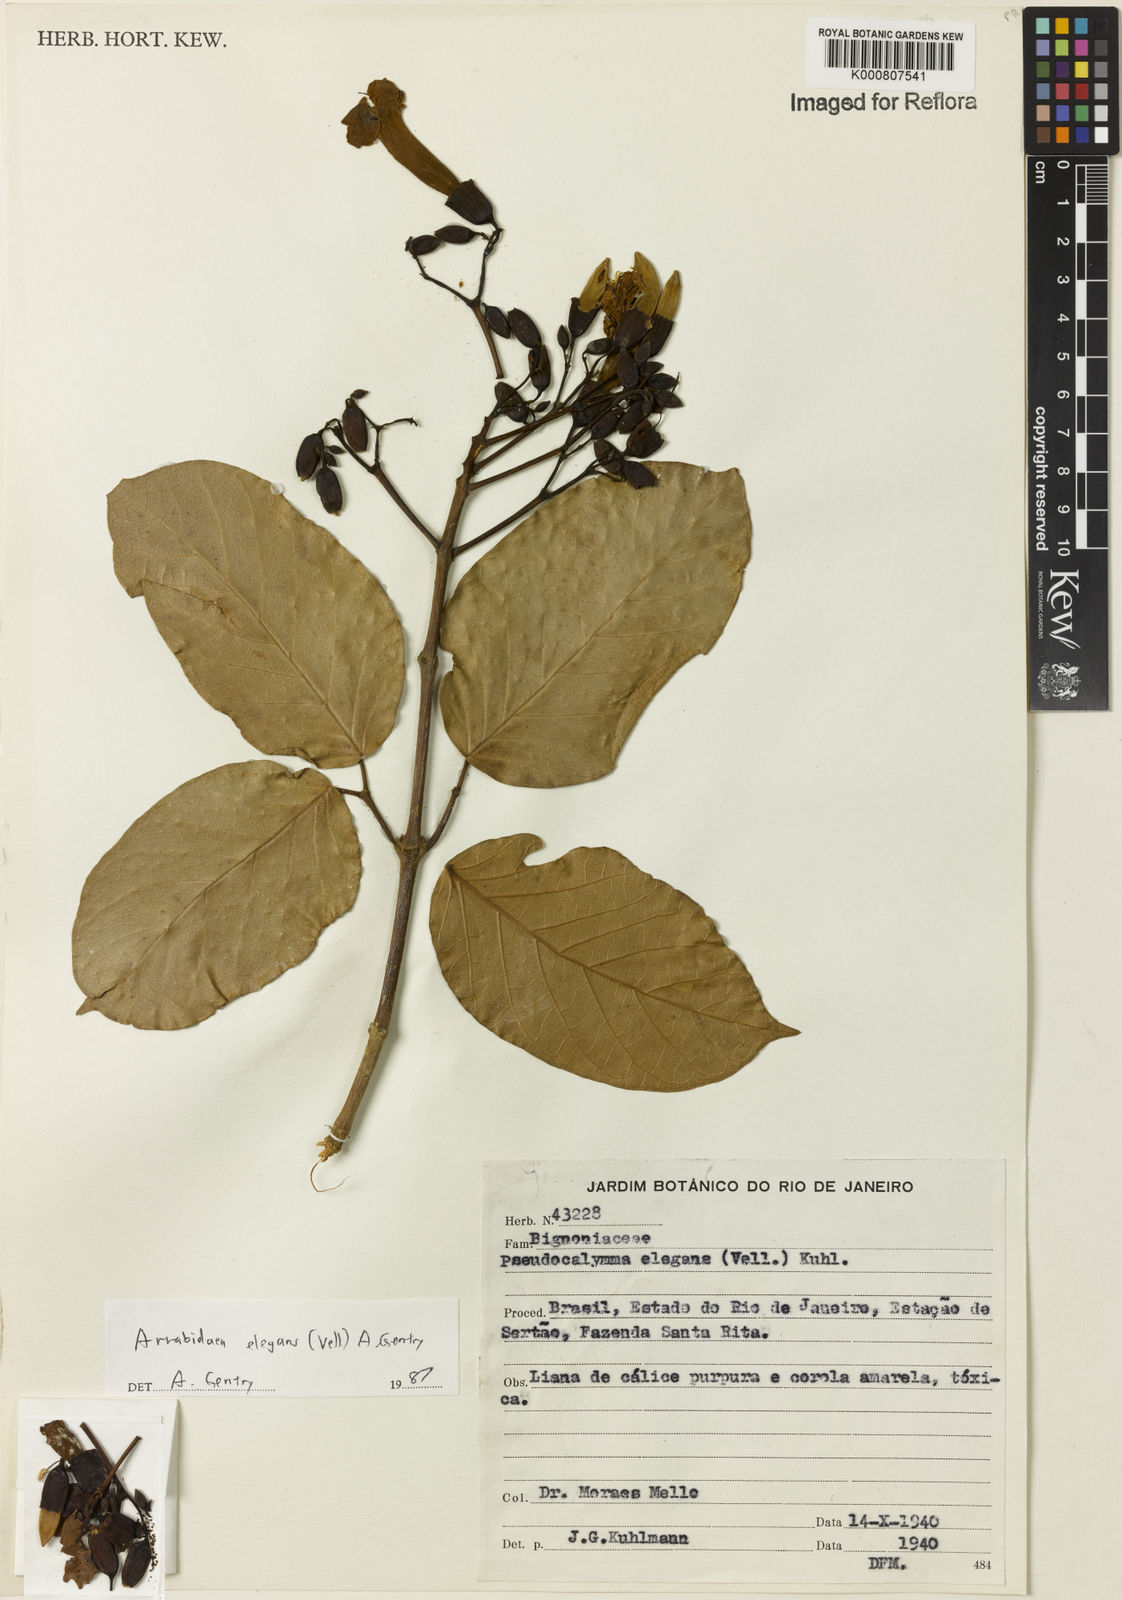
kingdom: Plantae
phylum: Tracheophyta
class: Magnoliopsida
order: Lamiales
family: Bignoniaceae
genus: Fridericia
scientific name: Fridericia elegans
